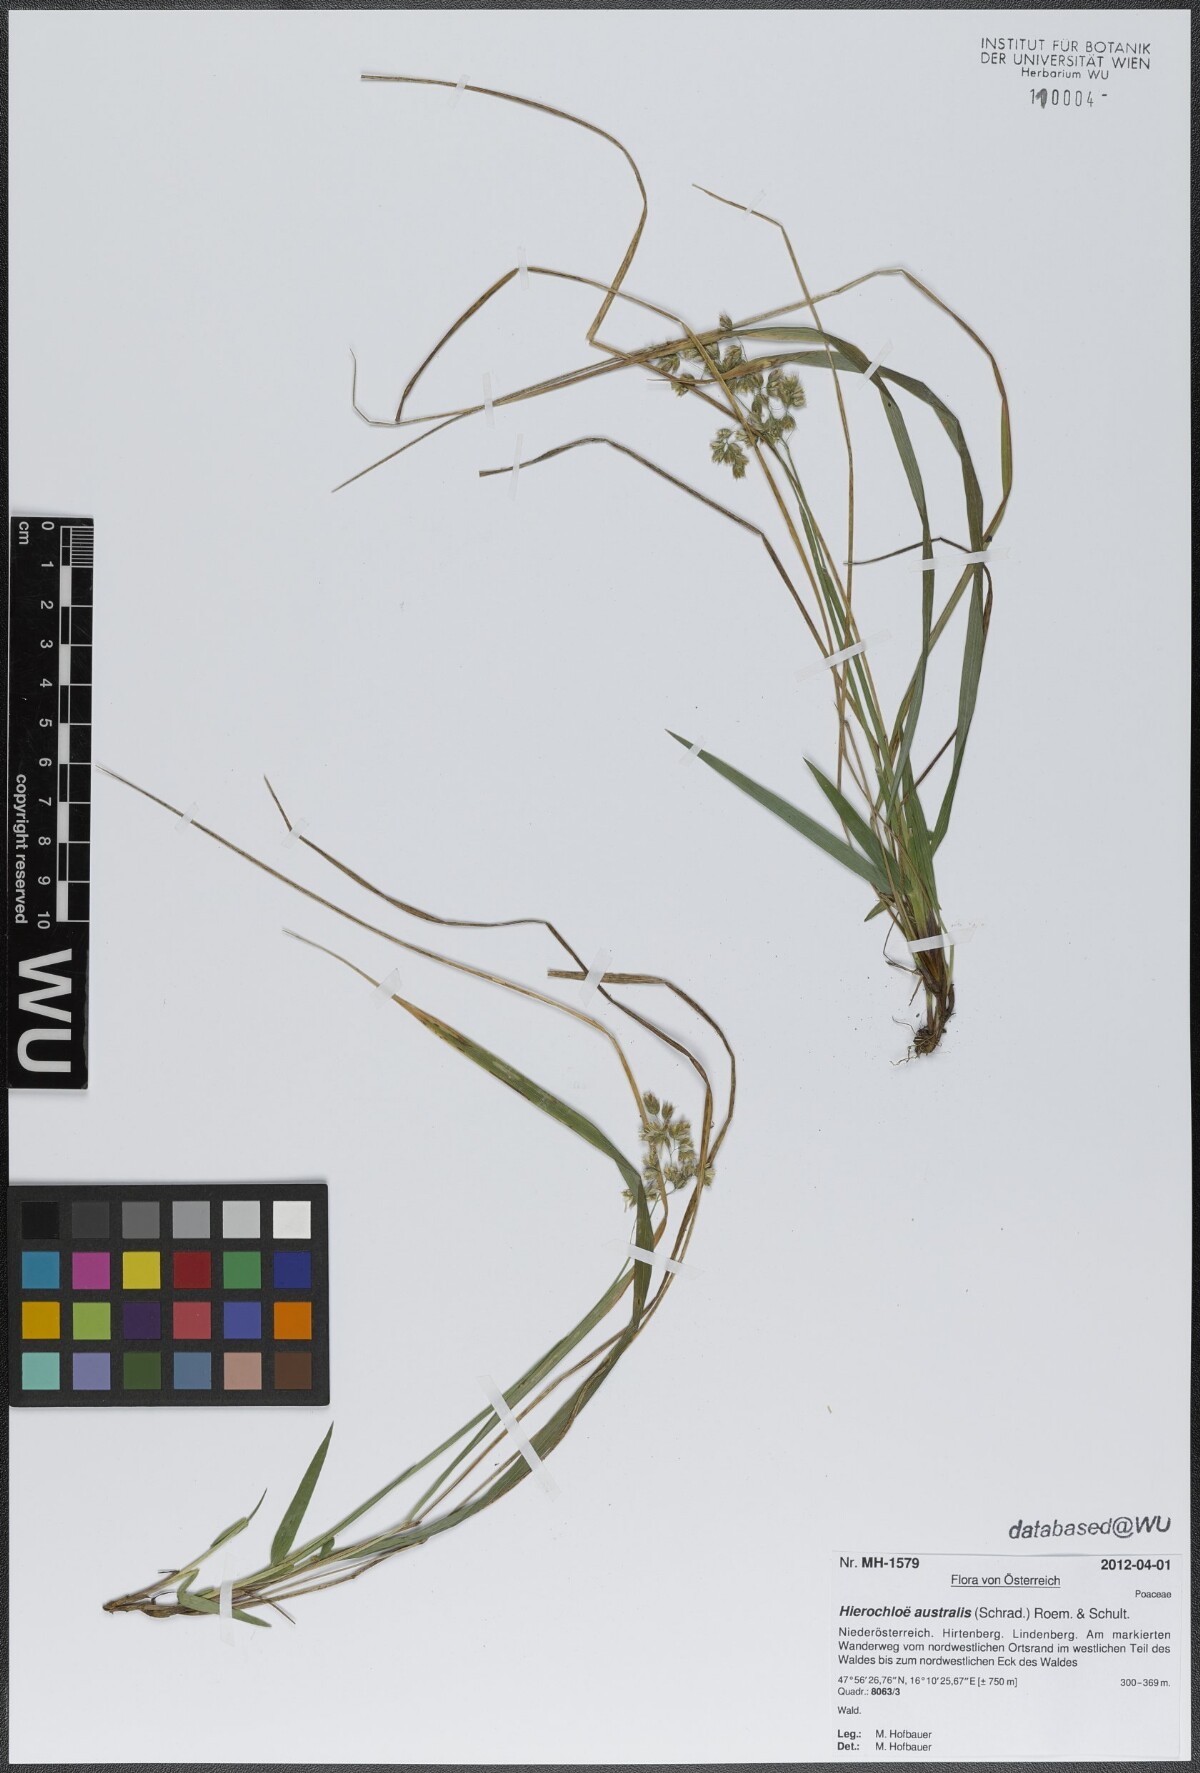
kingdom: Plantae
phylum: Tracheophyta
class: Liliopsida
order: Poales
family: Poaceae
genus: Anthoxanthum
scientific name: Anthoxanthum australe
